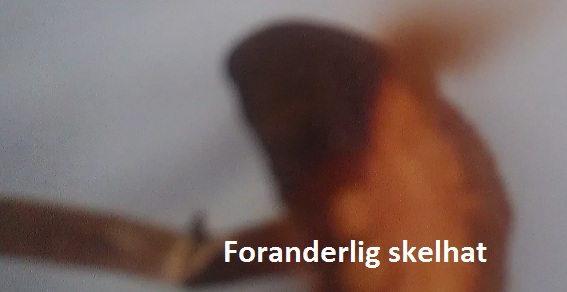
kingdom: Fungi
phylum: Basidiomycota
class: Agaricomycetes
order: Agaricales
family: Strophariaceae
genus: Kuehneromyces
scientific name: Kuehneromyces mutabilis
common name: foranderlig skælhat
